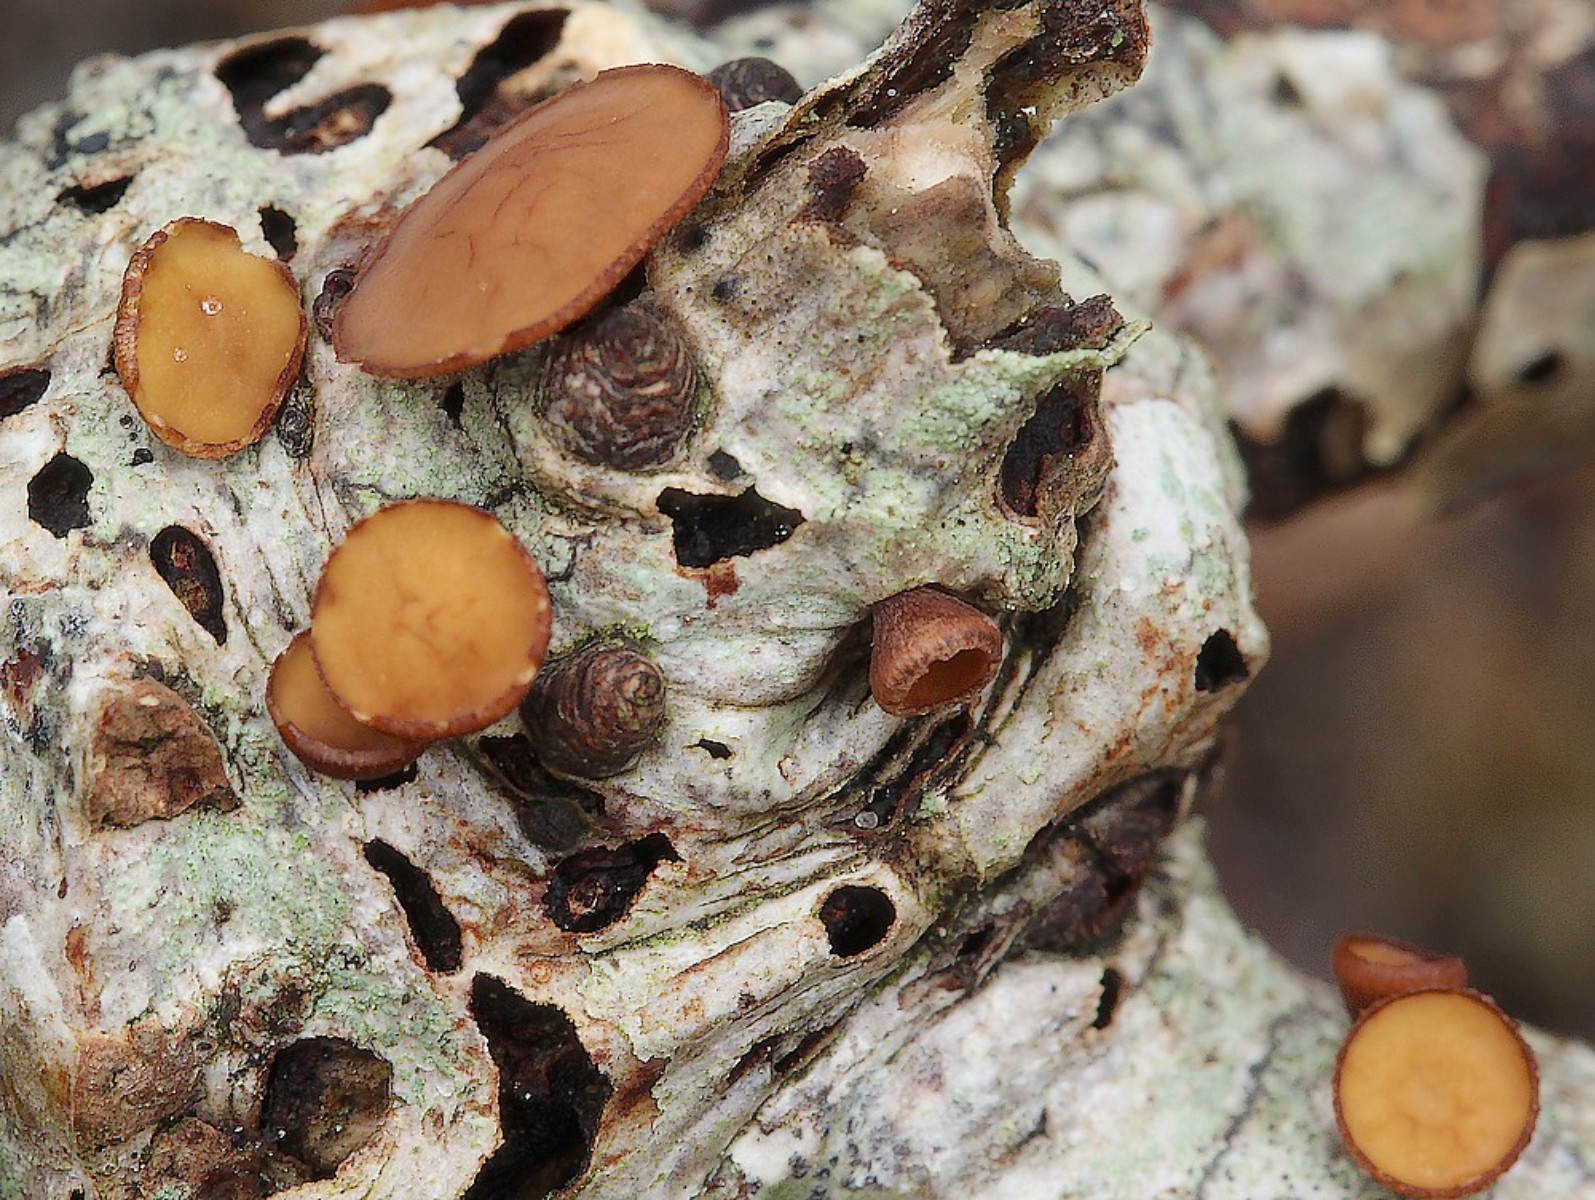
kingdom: Fungi
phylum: Ascomycota
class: Leotiomycetes
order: Helotiales
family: Rutstroemiaceae
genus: Rutstroemia
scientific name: Rutstroemia firma
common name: gren-brunskive
